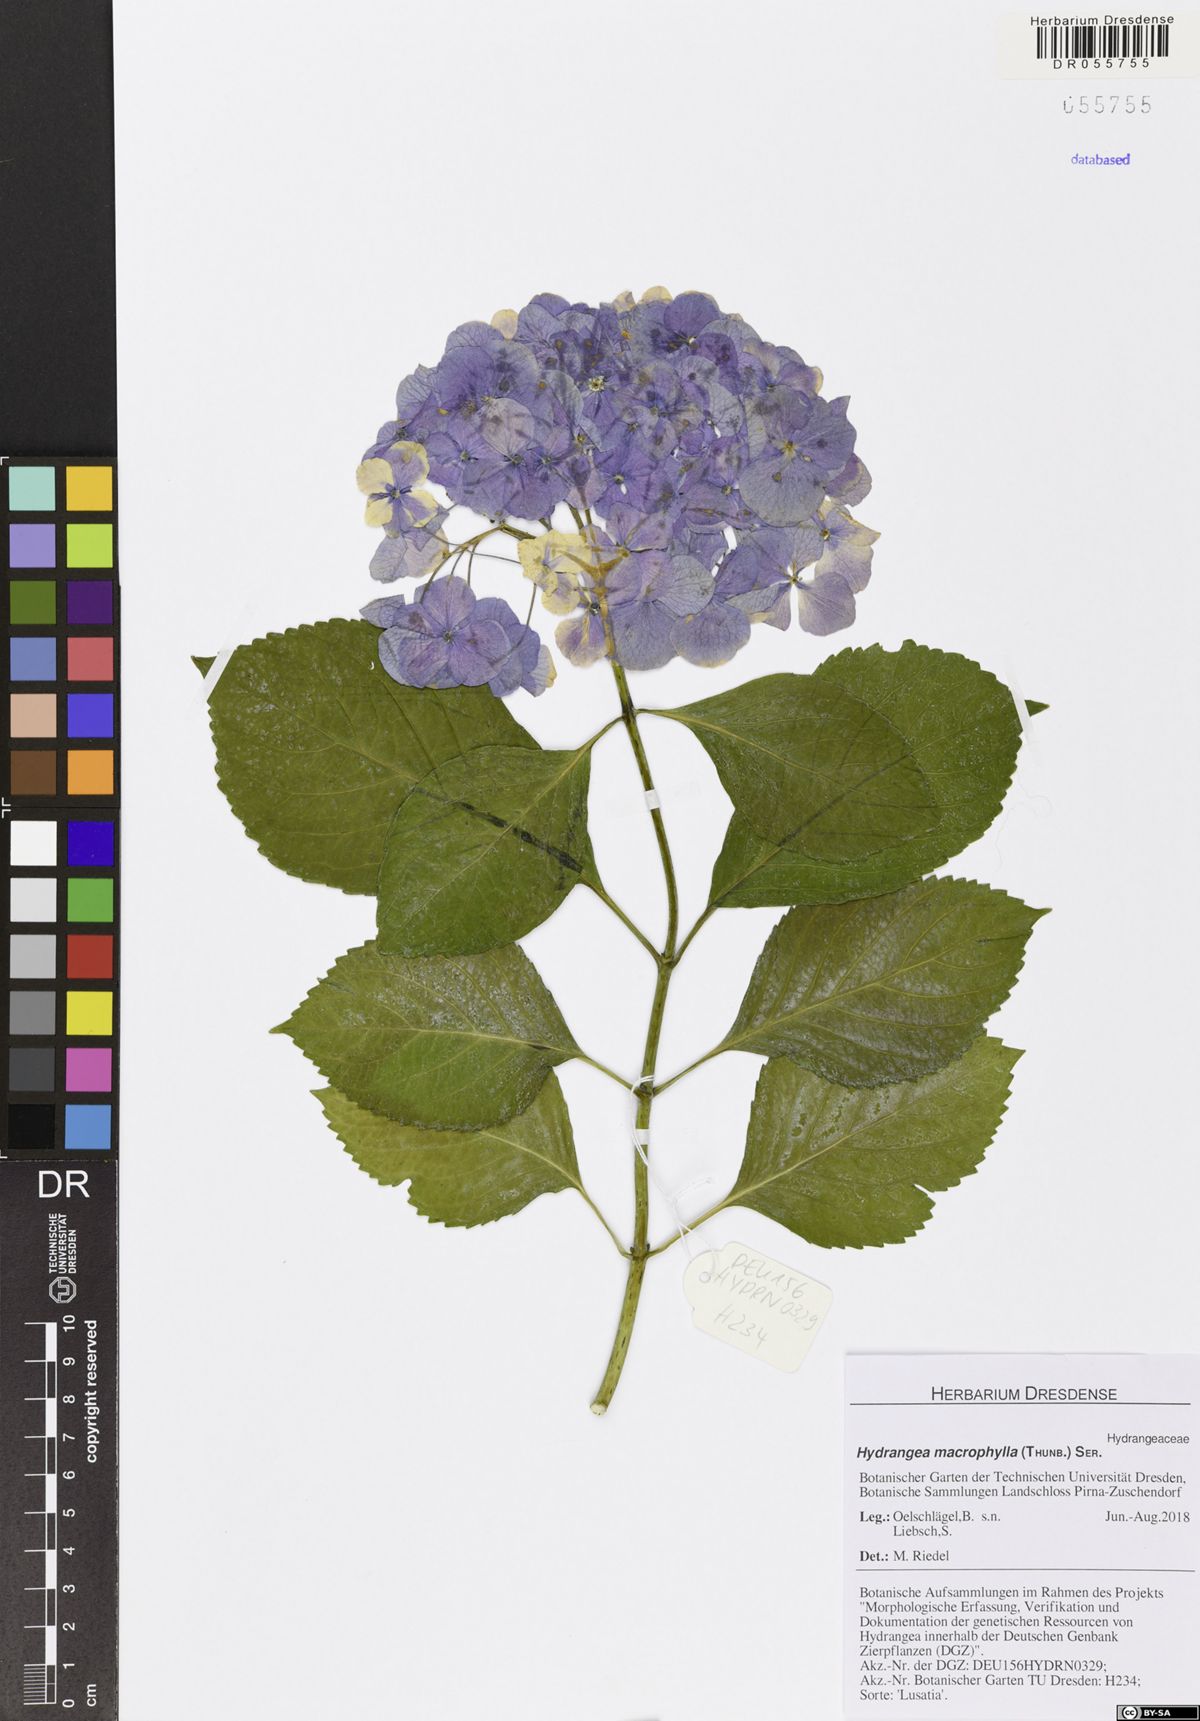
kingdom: Plantae
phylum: Tracheophyta
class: Magnoliopsida
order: Cornales
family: Hydrangeaceae
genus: Hydrangea
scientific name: Hydrangea macrophylla
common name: Hydrangea
